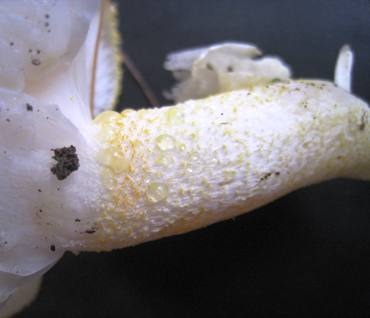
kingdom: Fungi
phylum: Basidiomycota
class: Agaricomycetes
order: Agaricales
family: Hygrophoraceae
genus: Hygrophorus
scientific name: Hygrophorus chrysodon
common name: gulfnugget sneglehat
